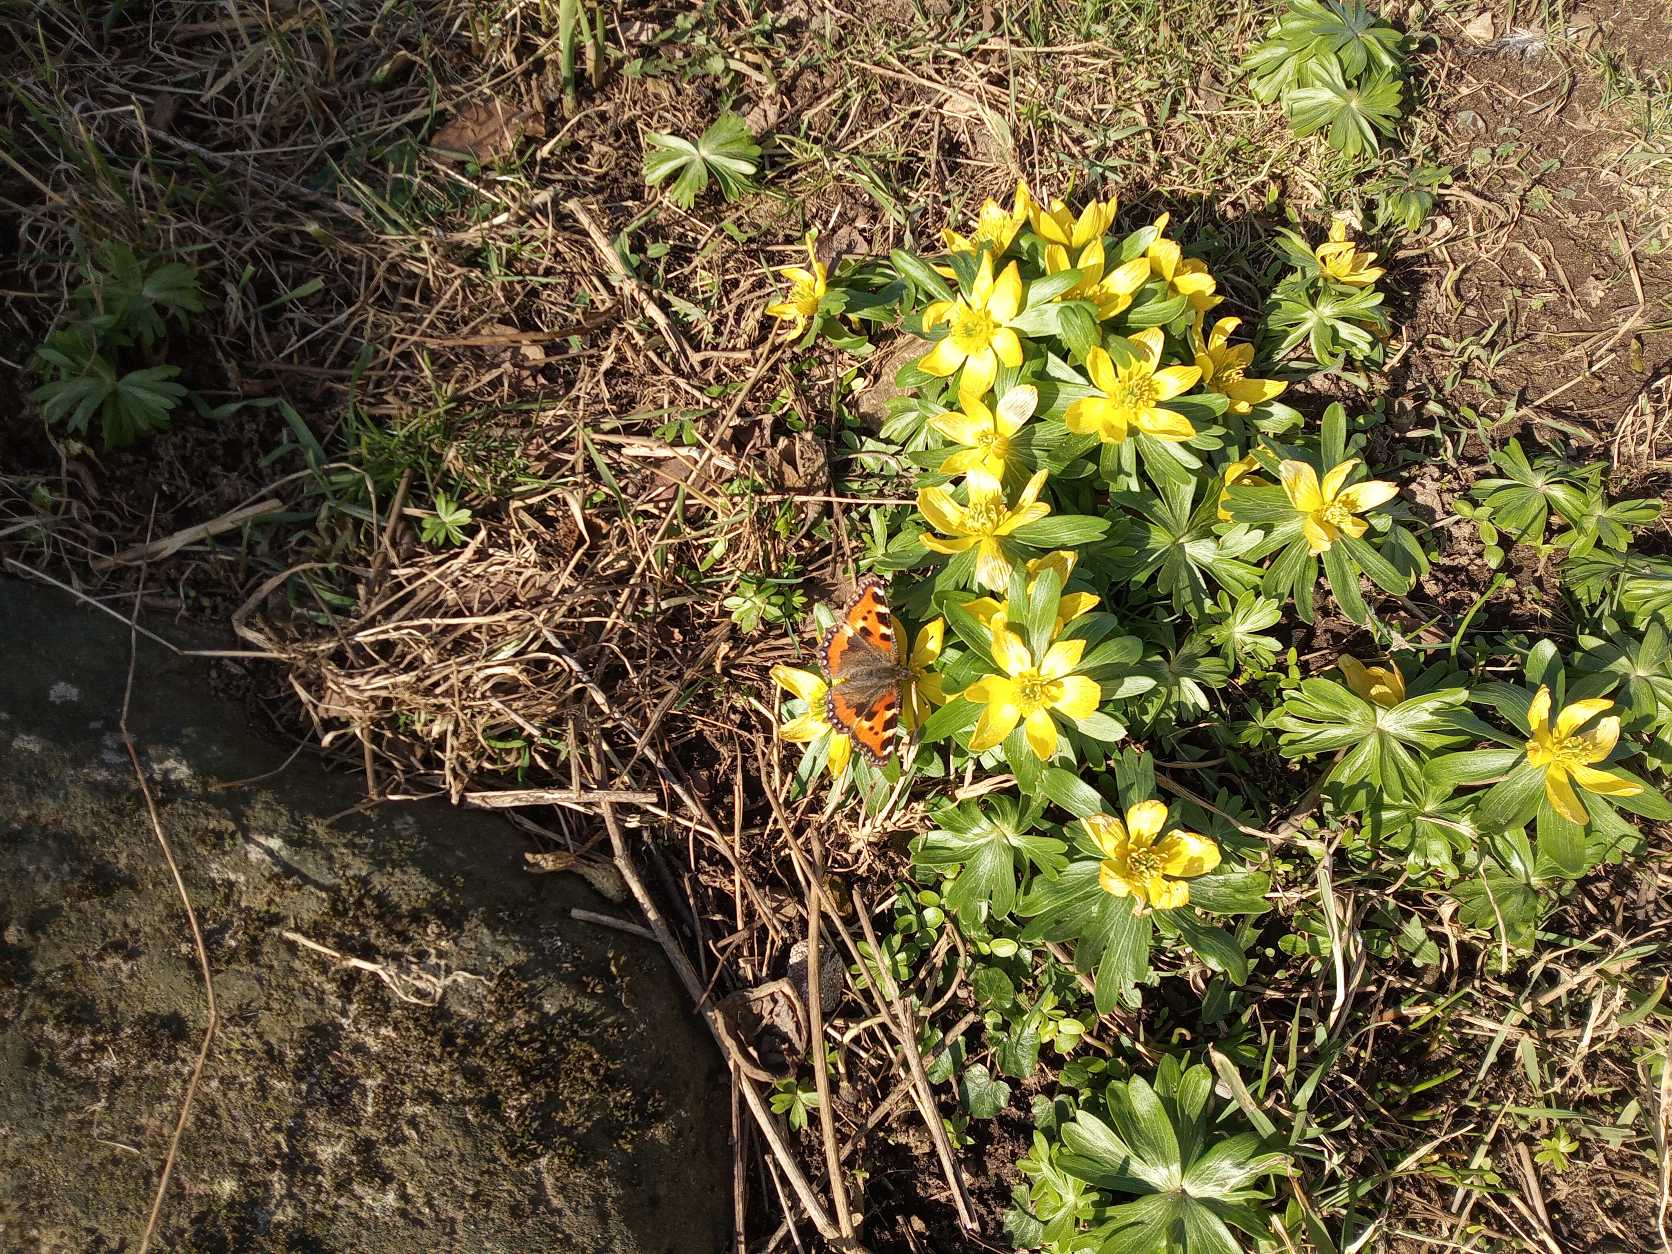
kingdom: Animalia
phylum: Arthropoda
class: Insecta
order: Lepidoptera
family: Nymphalidae
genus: Aglais
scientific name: Aglais urticae
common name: Nældens takvinge
